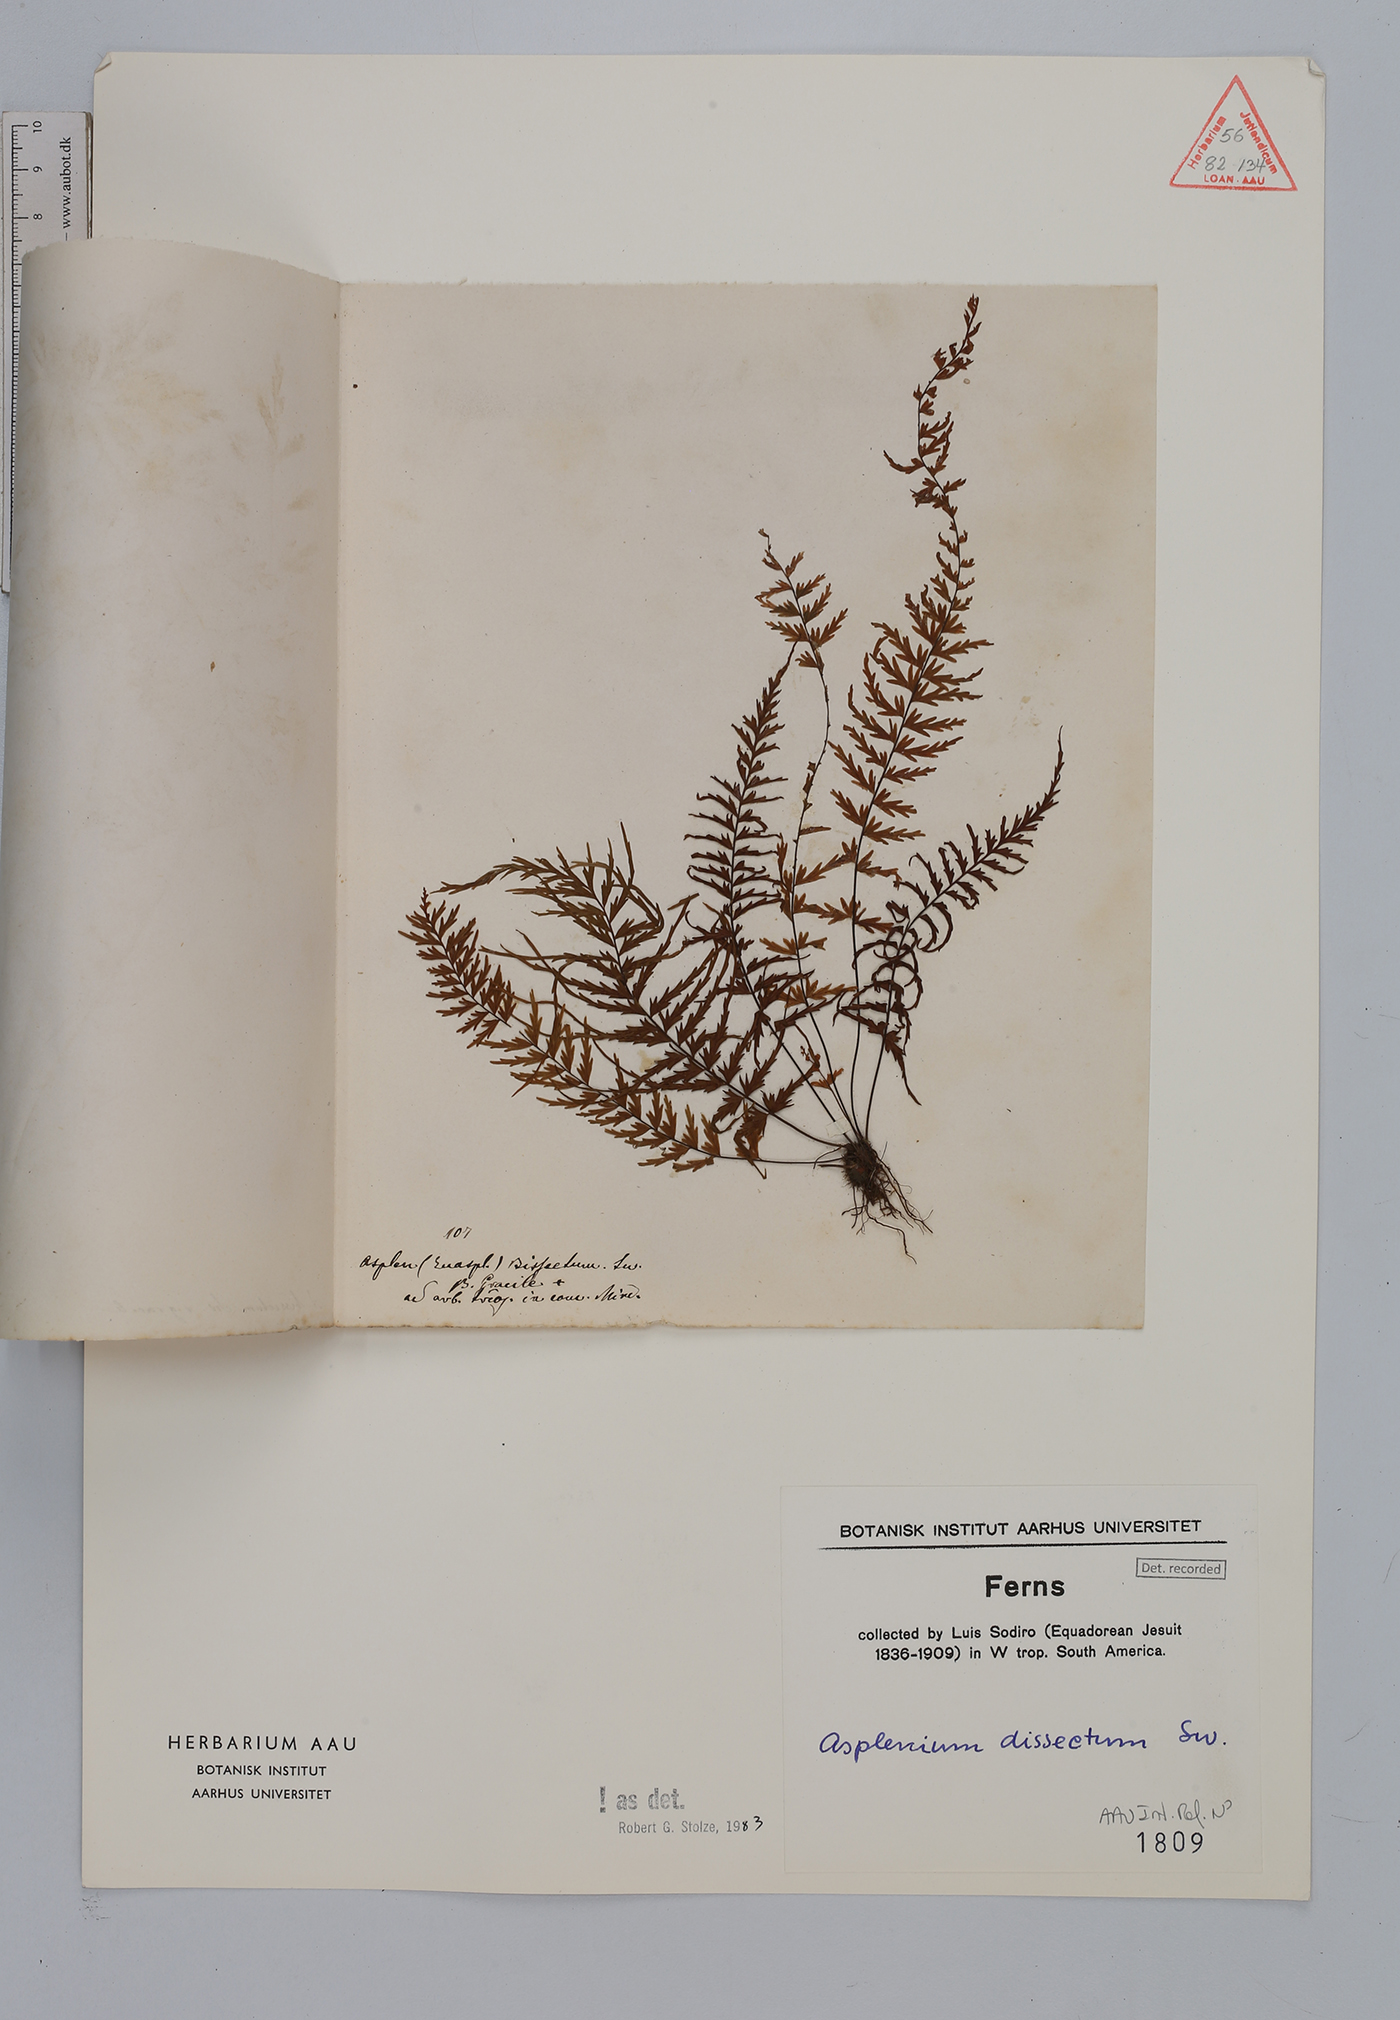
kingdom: Plantae
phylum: Tracheophyta
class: Polypodiopsida
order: Polypodiales
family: Aspleniaceae
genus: Asplenium
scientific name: Asplenium dissectum
